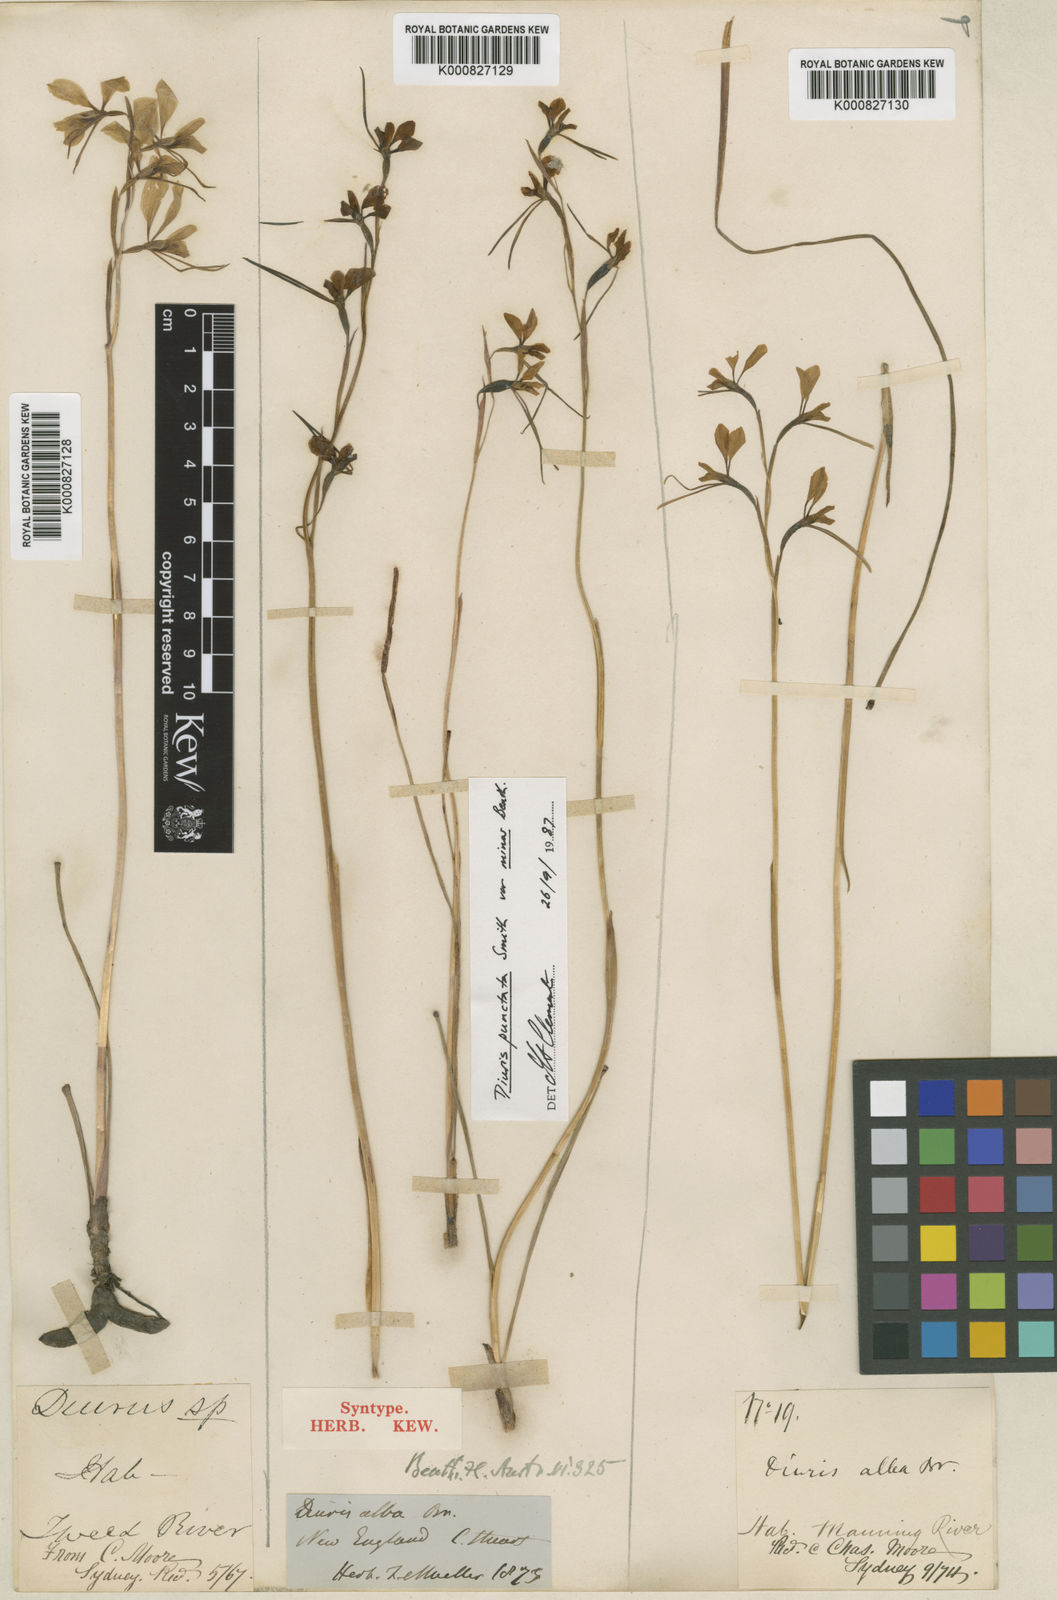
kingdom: Plantae
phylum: Tracheophyta
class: Liliopsida
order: Asparagales
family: Orchidaceae
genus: Diuris
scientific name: Diuris punctata
